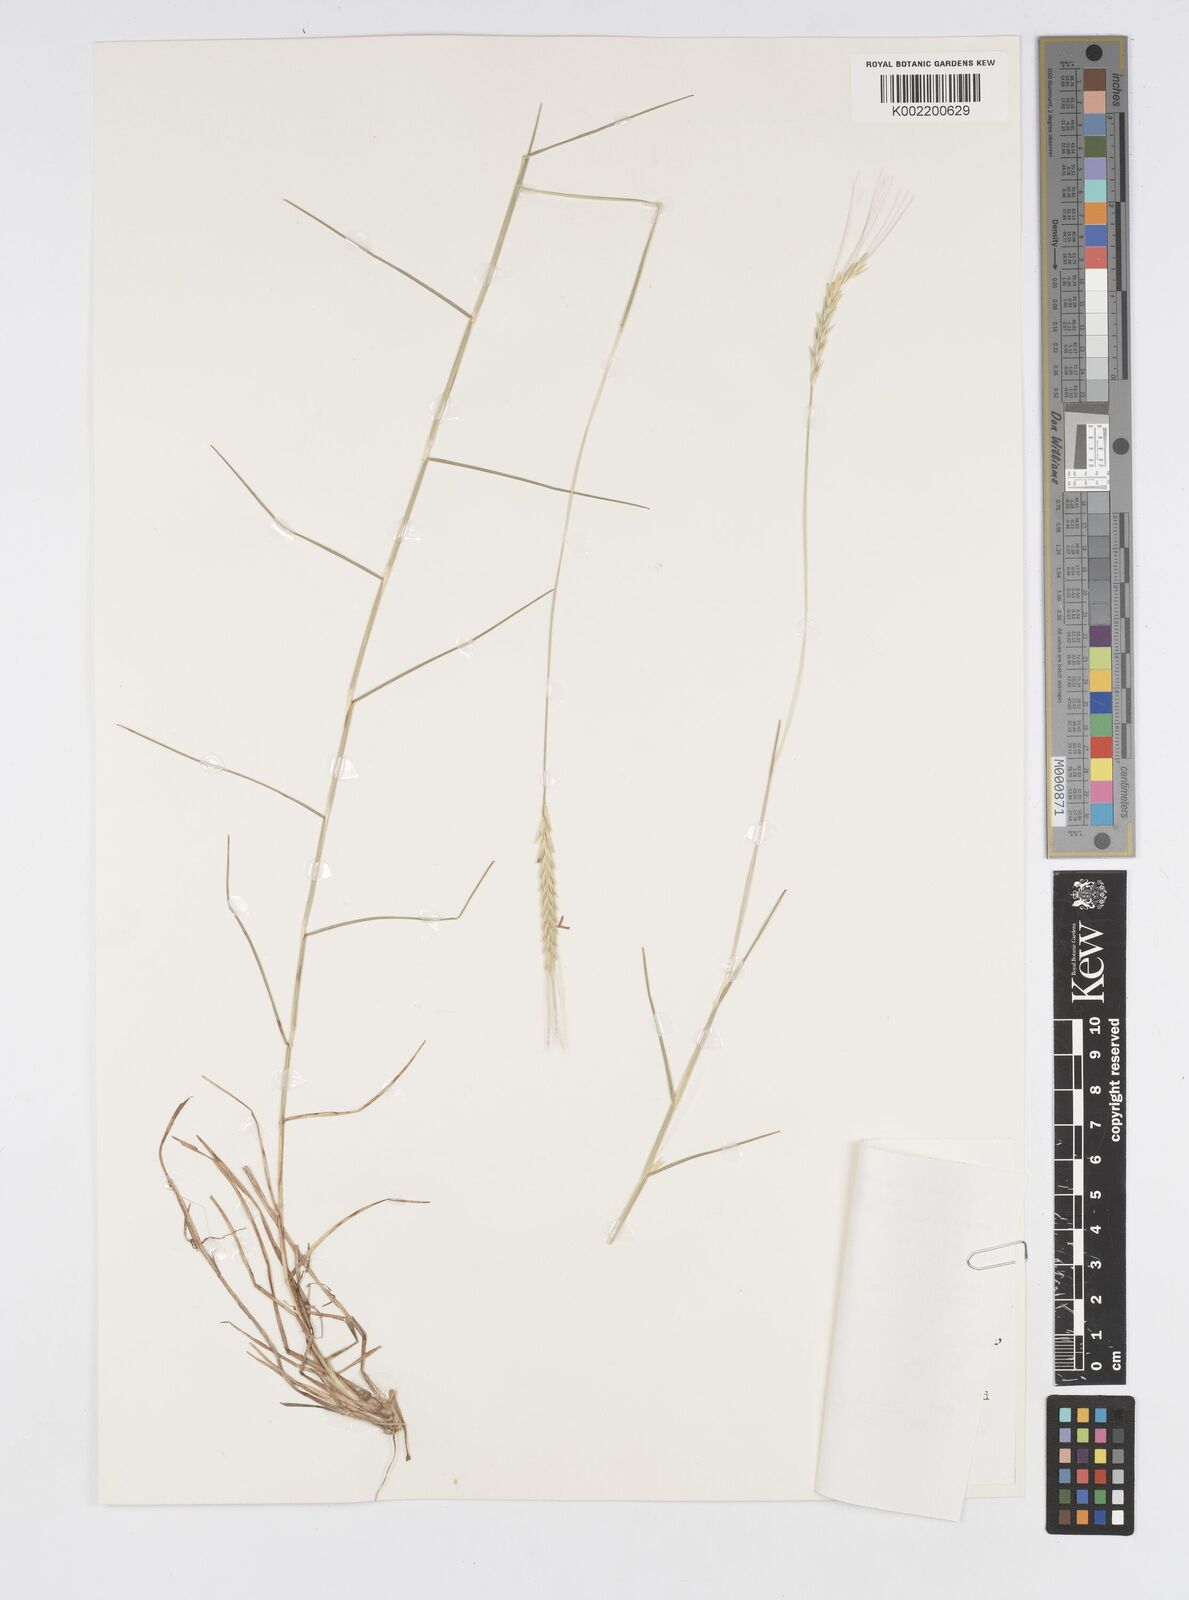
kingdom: Plantae
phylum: Tracheophyta
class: Liliopsida
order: Poales
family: Poaceae
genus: Chamaeraphis
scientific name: Chamaeraphis hordeacea
